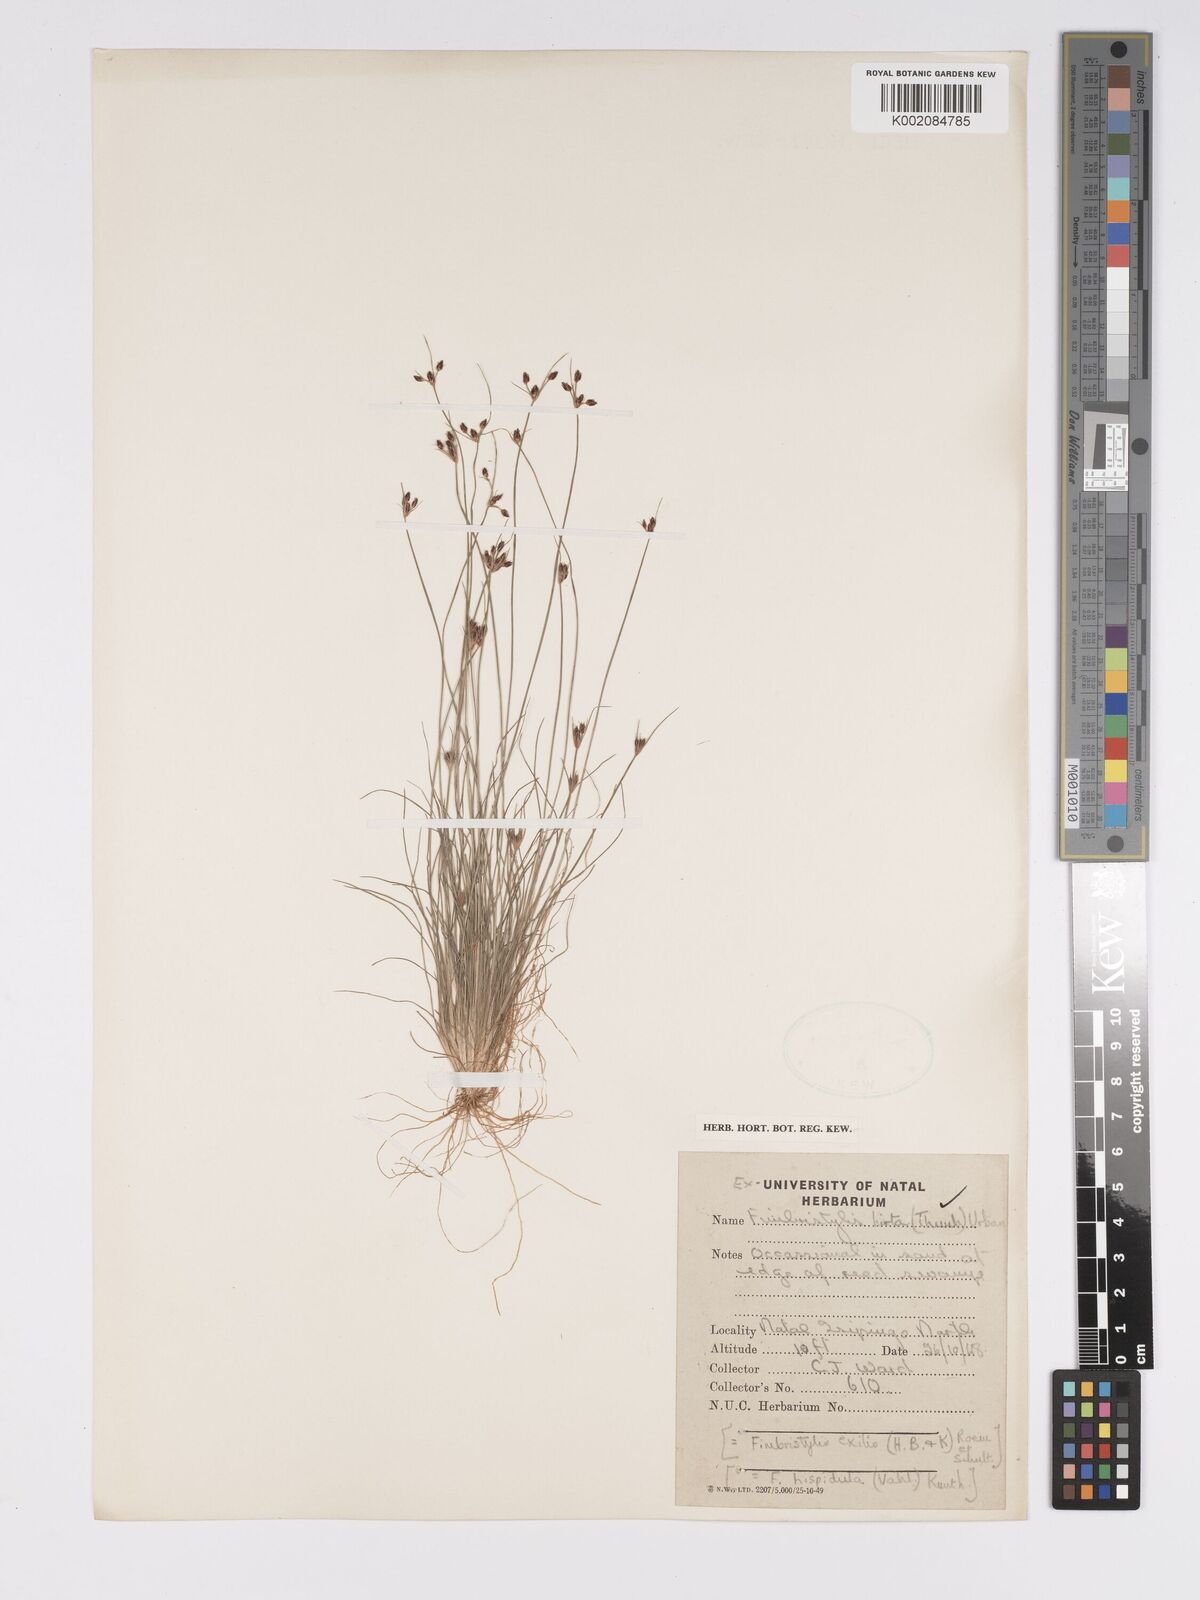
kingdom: Plantae
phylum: Tracheophyta
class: Liliopsida
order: Poales
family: Cyperaceae
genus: Bulbostylis
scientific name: Bulbostylis
